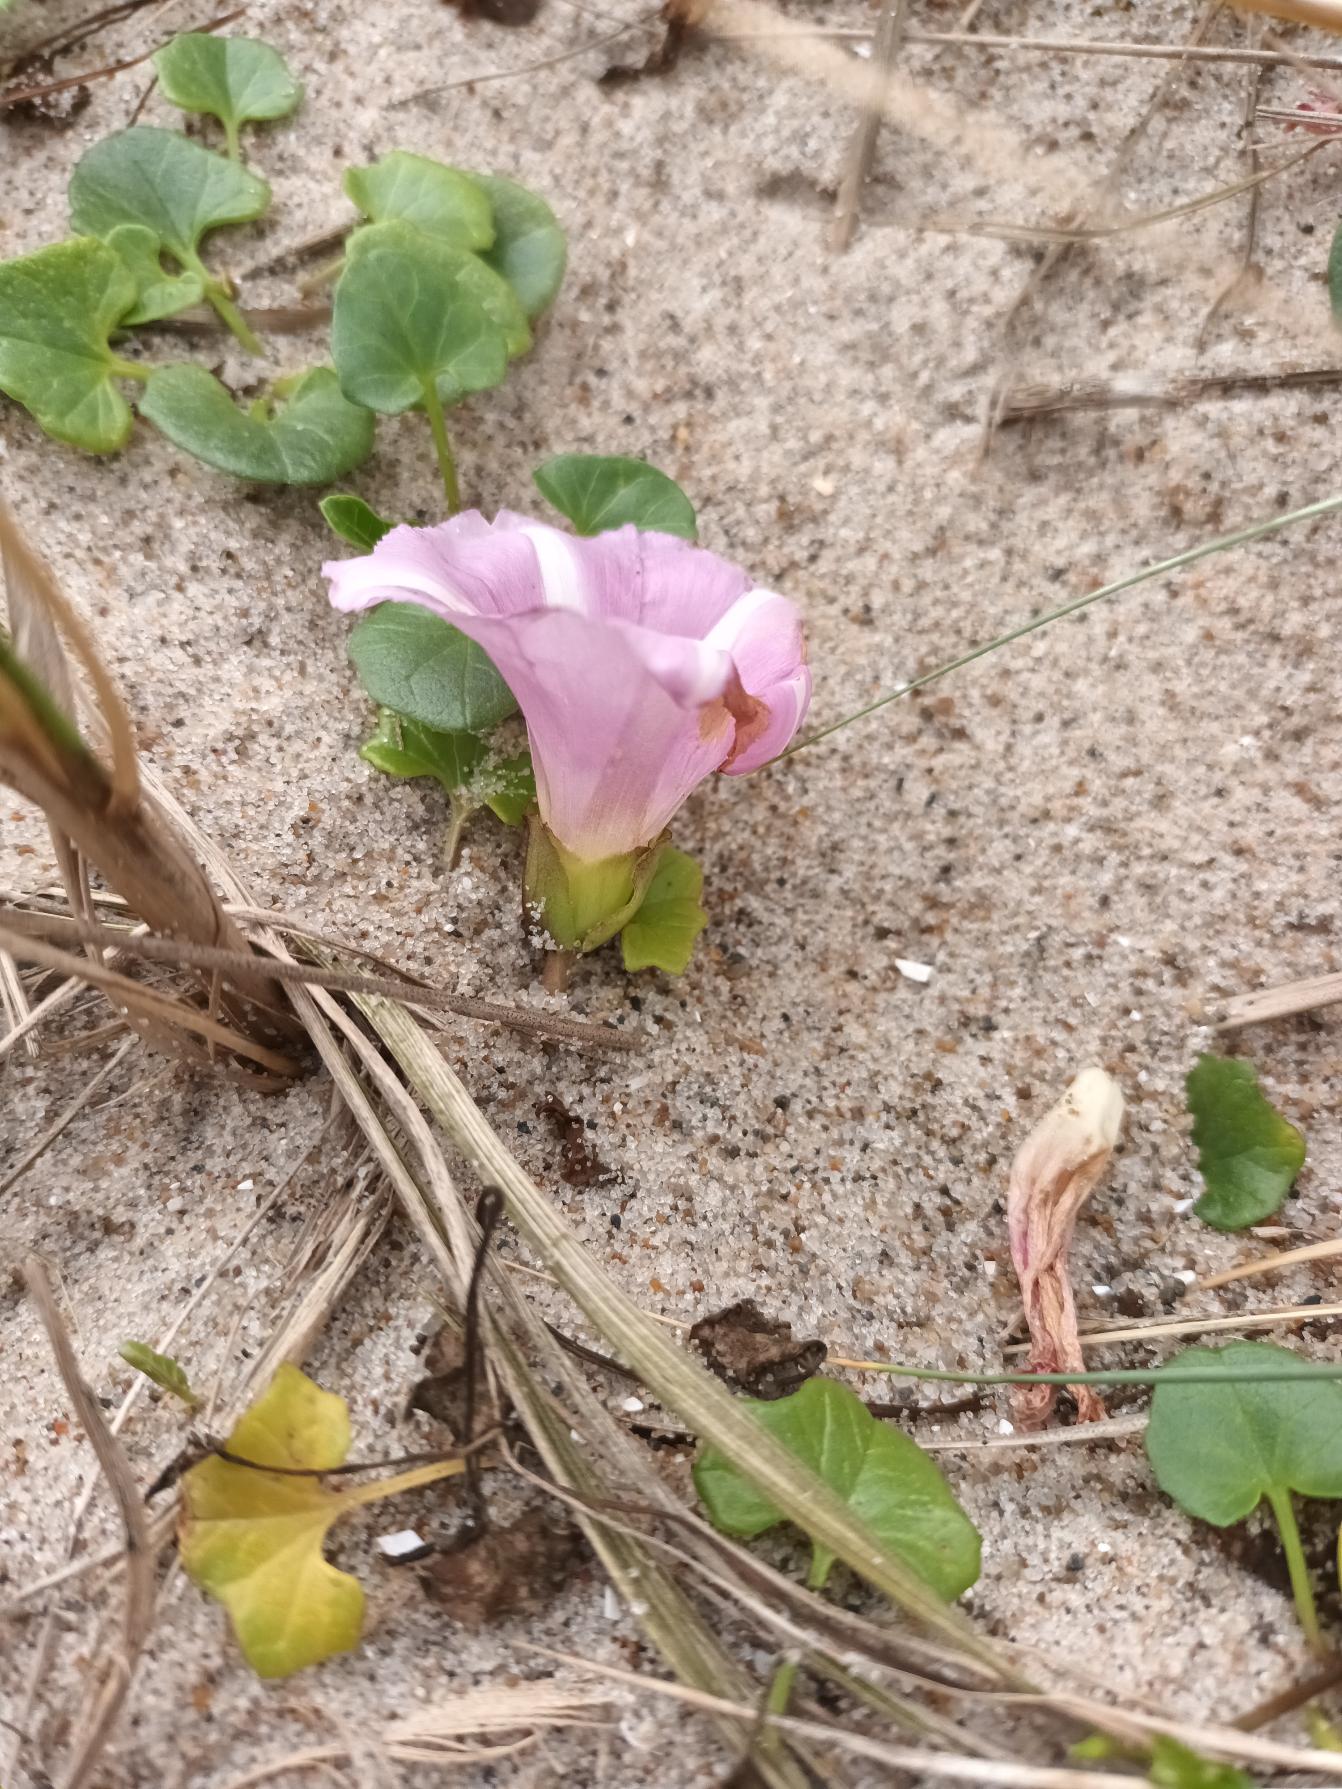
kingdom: Plantae
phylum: Tracheophyta
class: Magnoliopsida
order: Solanales
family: Convolvulaceae
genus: Calystegia
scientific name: Calystegia soldanella
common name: Strand-snerle
